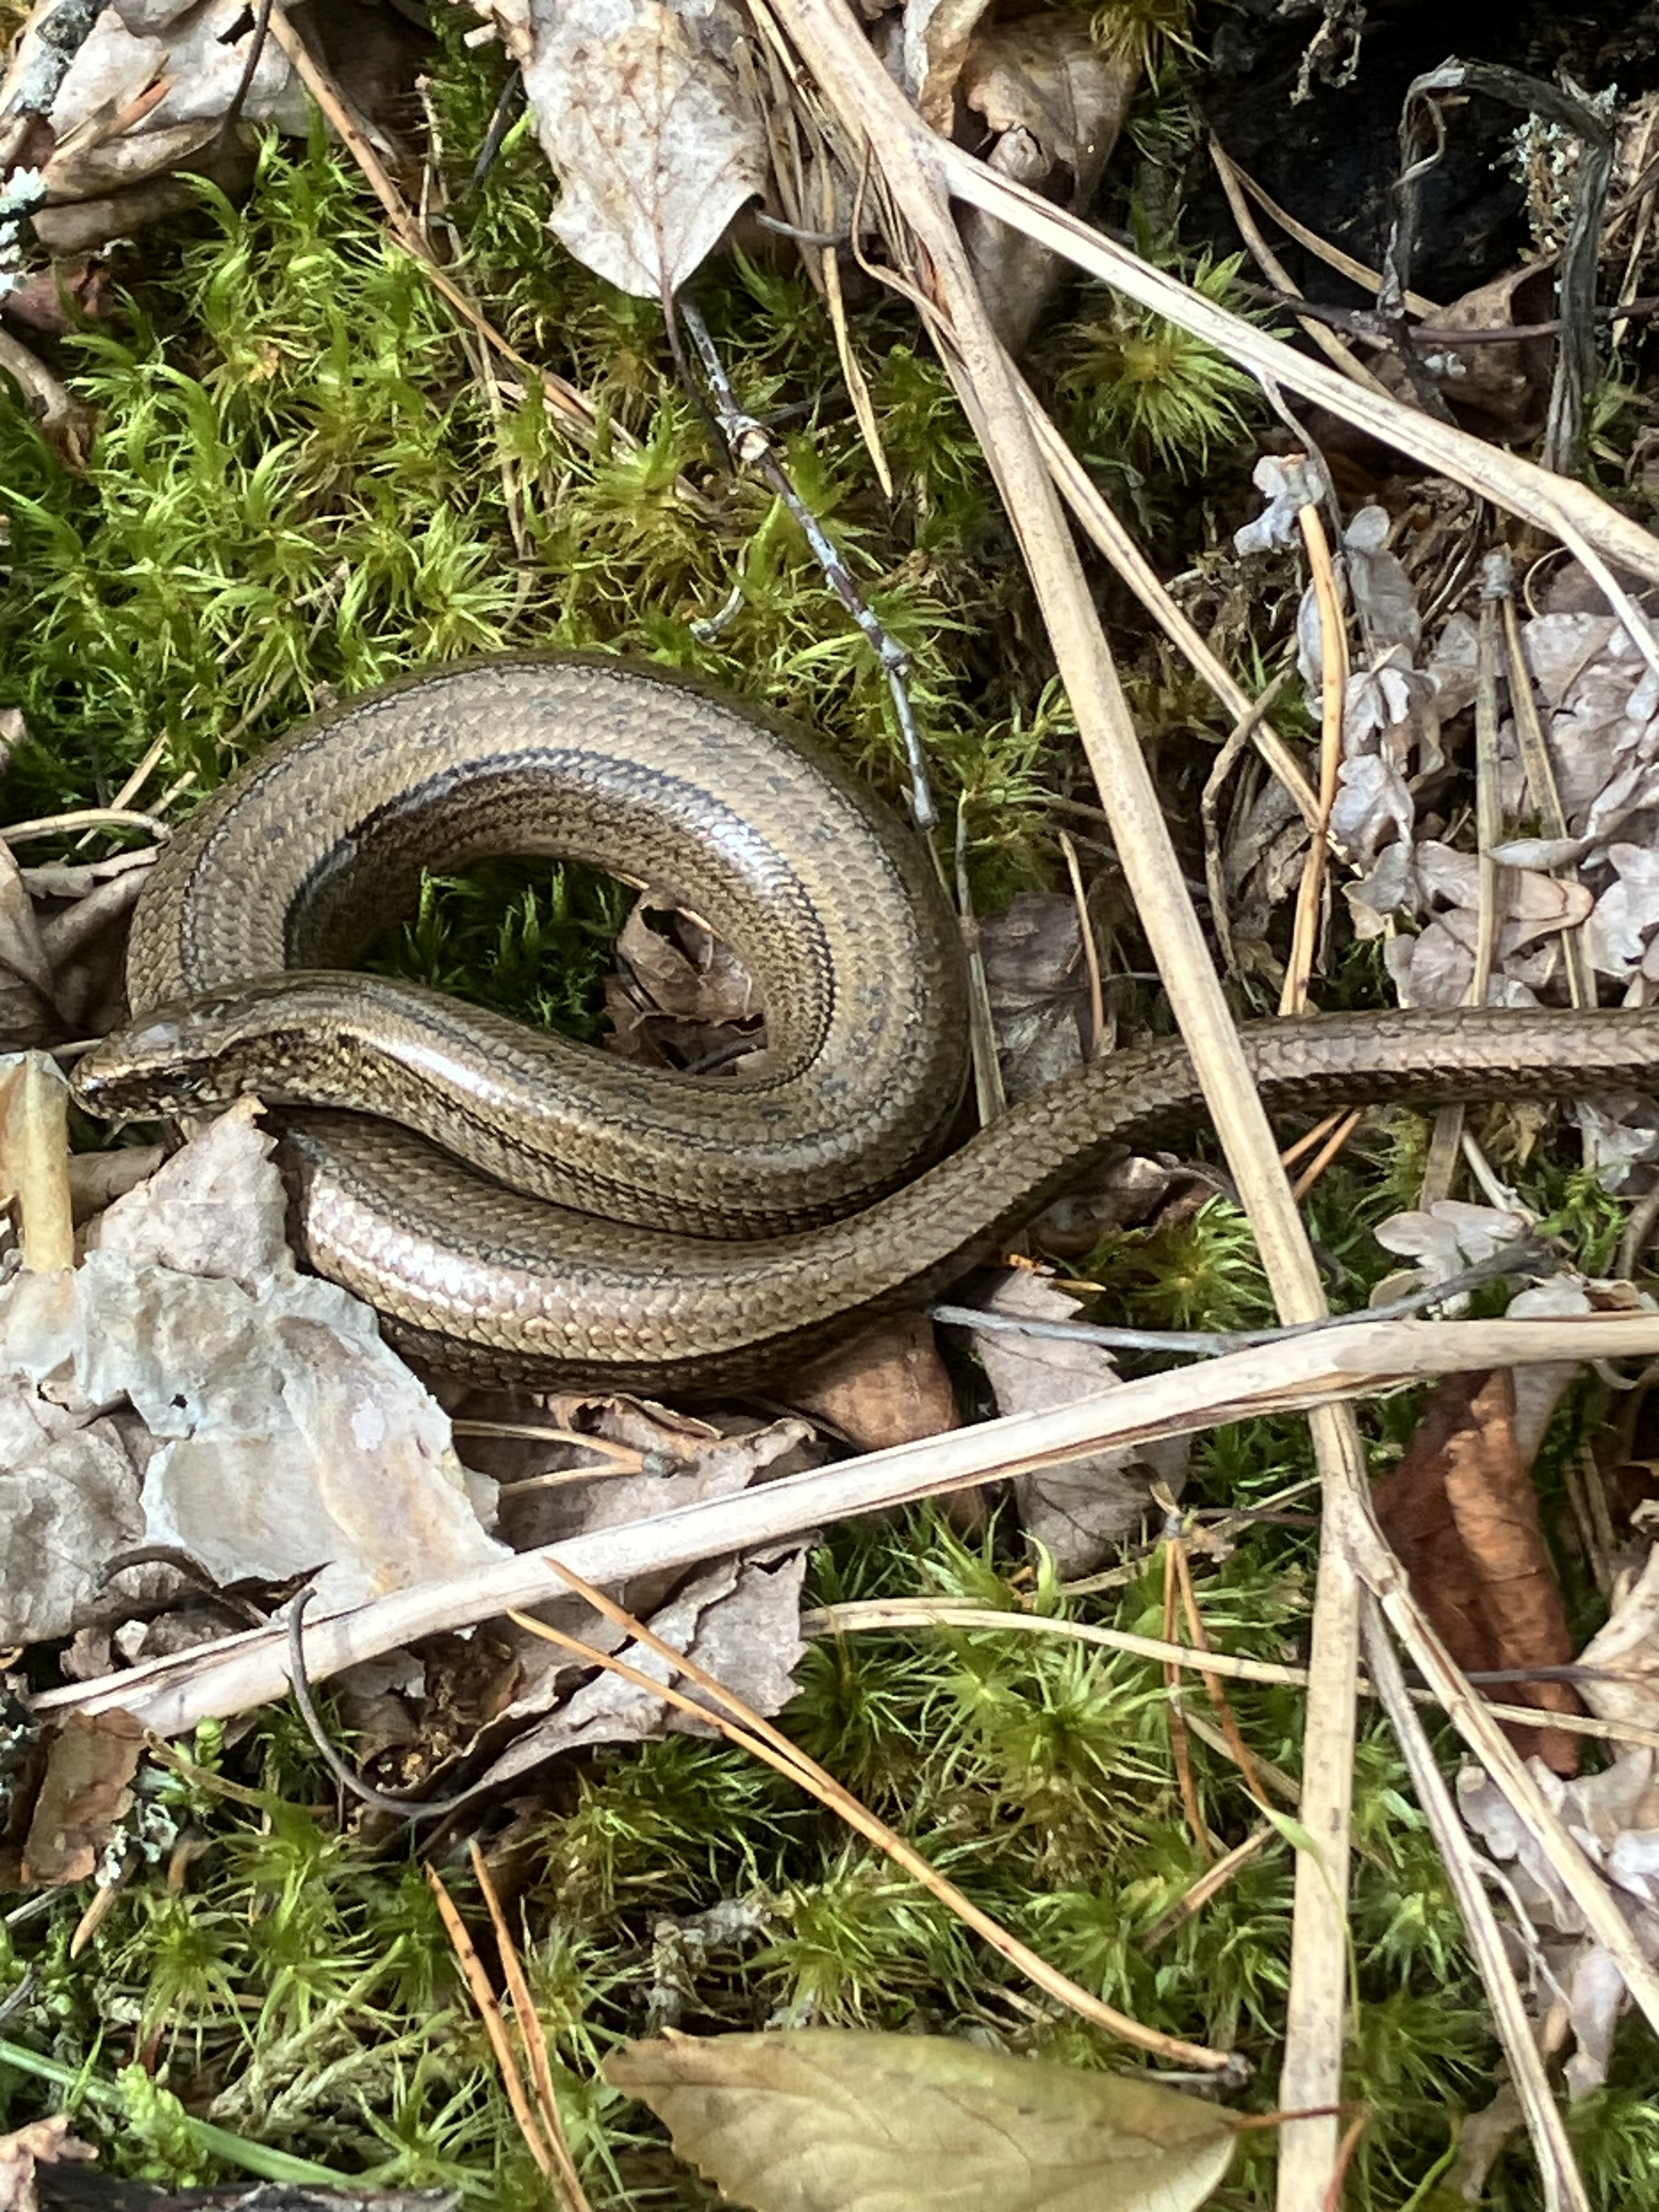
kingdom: Animalia
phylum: Chordata
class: Squamata
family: Anguidae
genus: Anguis
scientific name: Anguis colchica
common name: Slow worm
